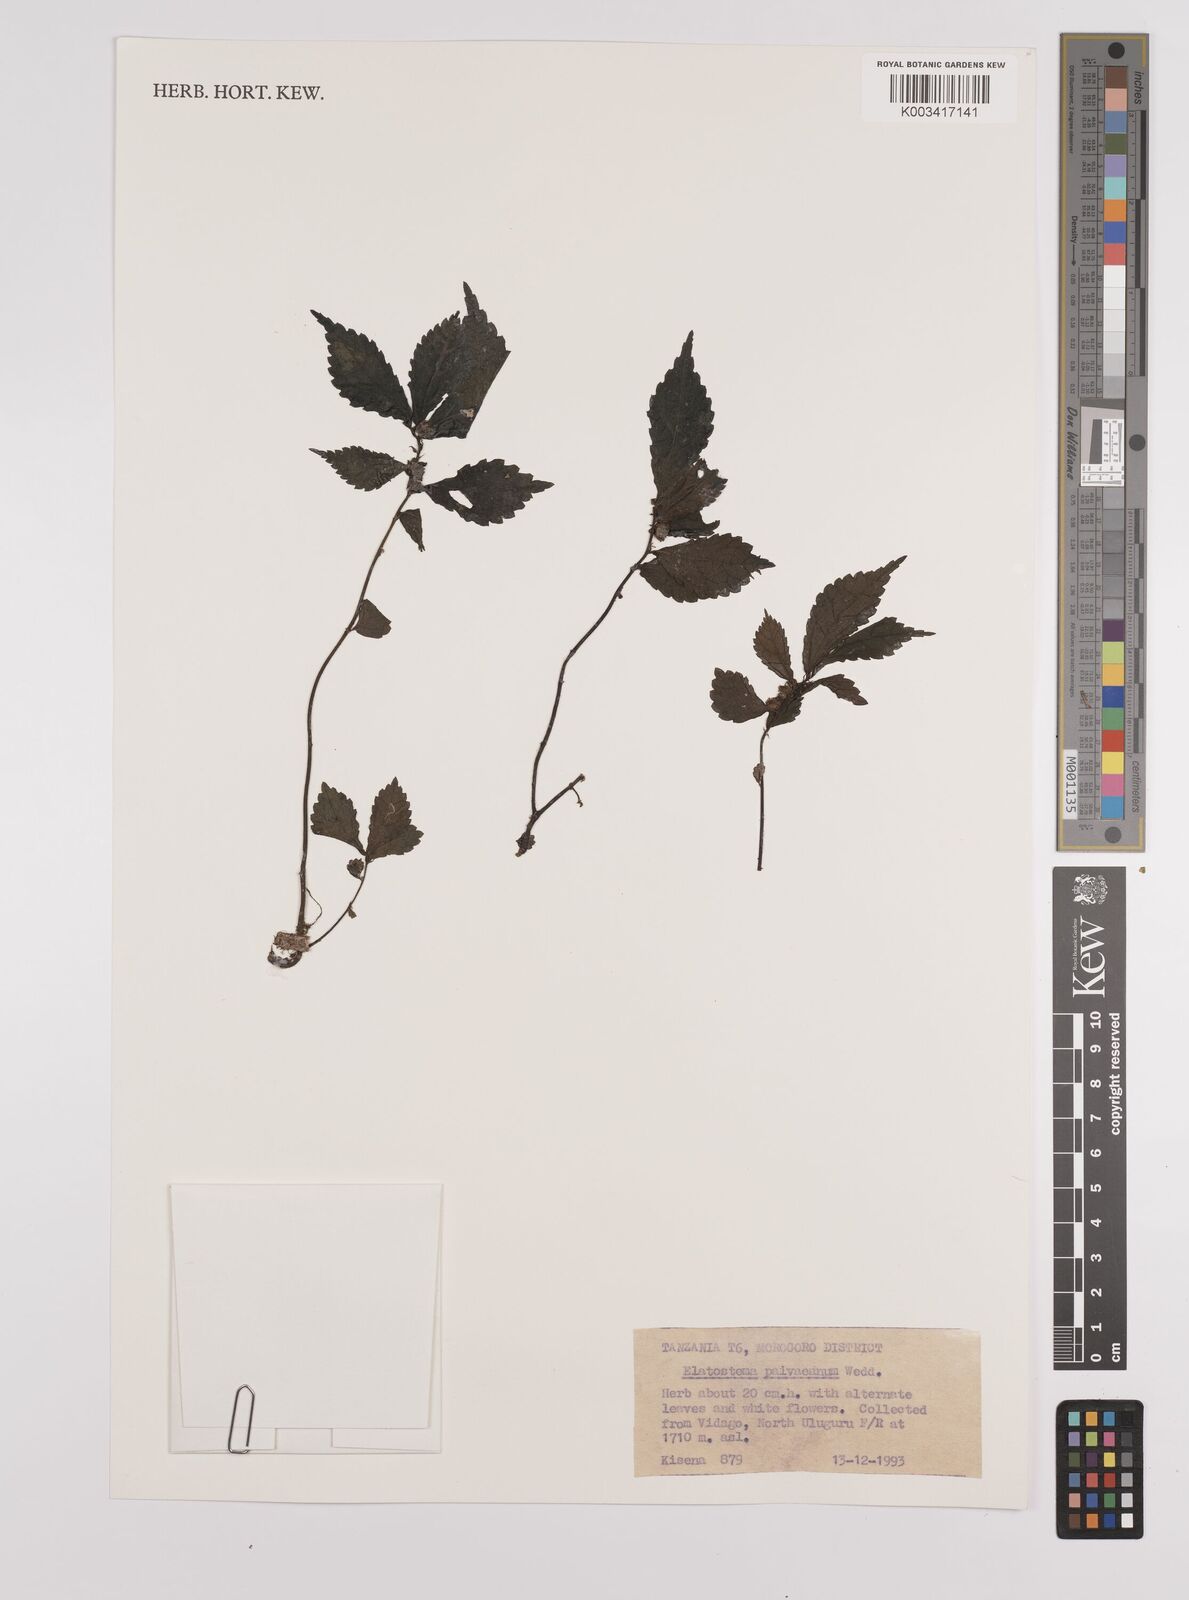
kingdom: Plantae
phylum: Tracheophyta
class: Magnoliopsida
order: Rosales
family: Urticaceae
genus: Elatostema
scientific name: Elatostema paivaeanum
